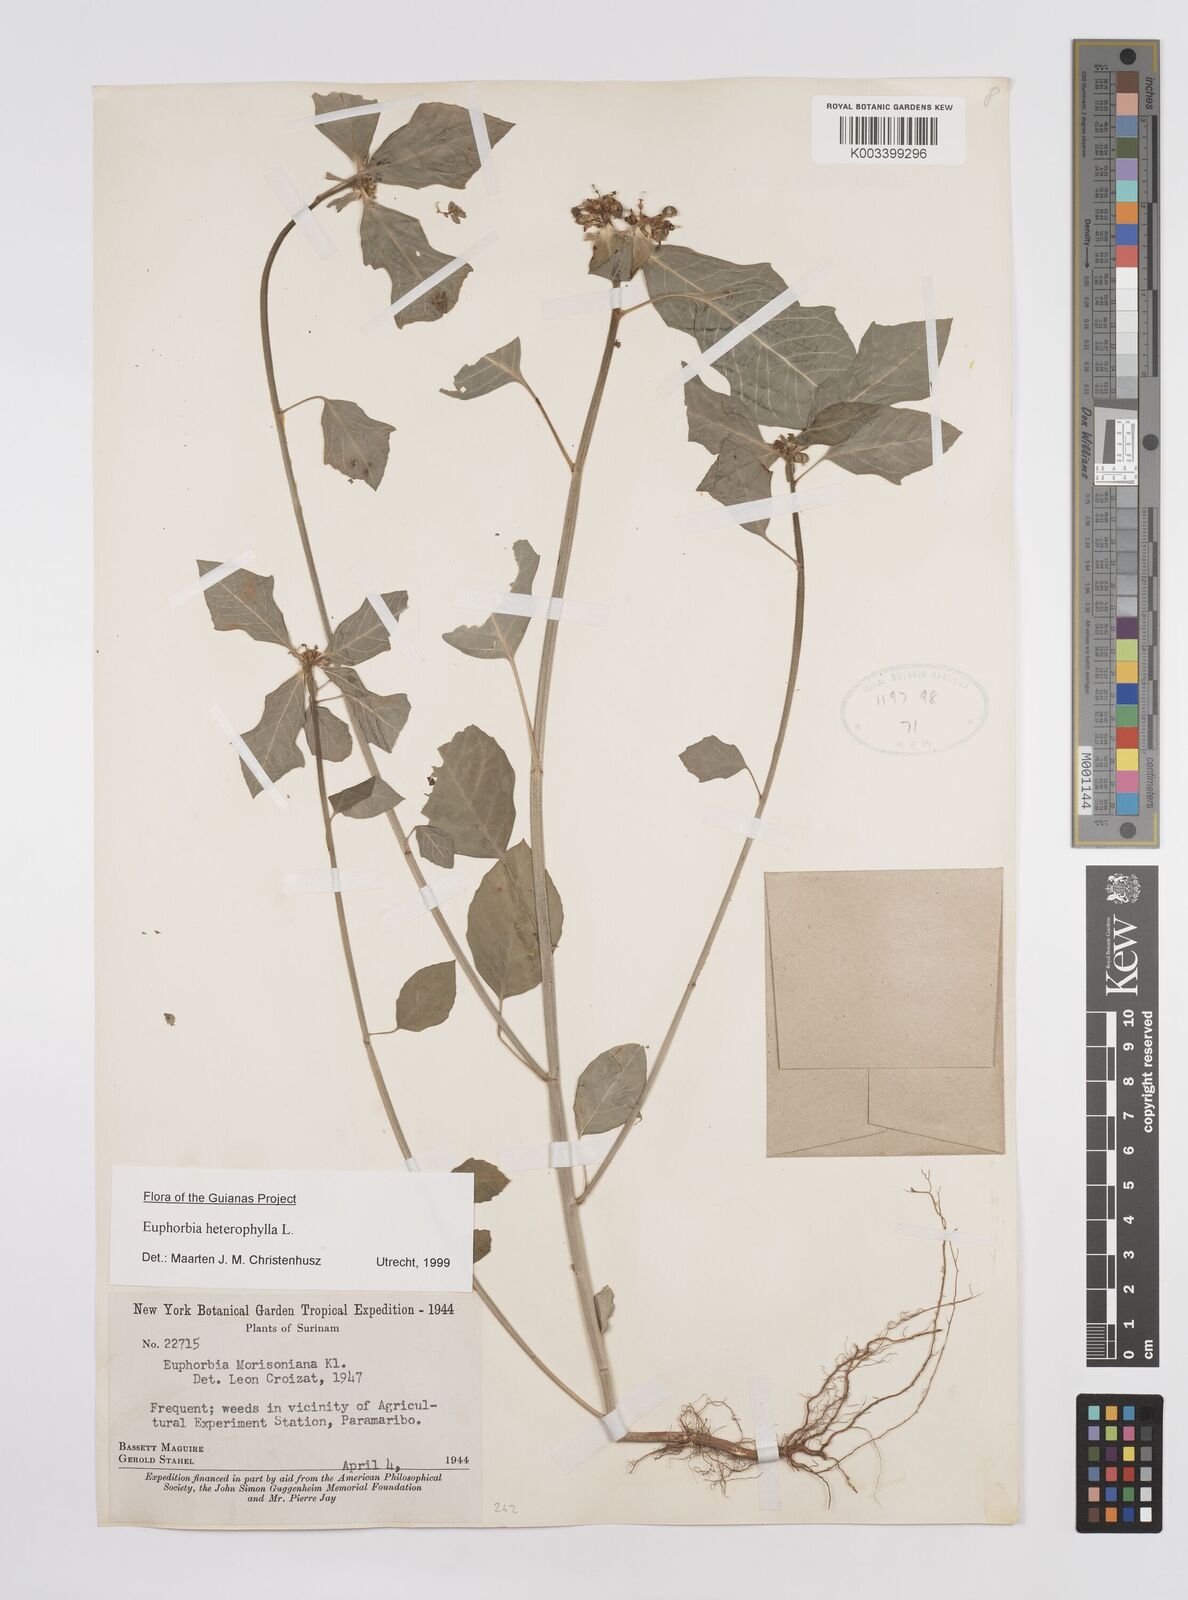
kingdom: Plantae
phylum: Tracheophyta
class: Magnoliopsida
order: Malpighiales
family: Euphorbiaceae
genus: Euphorbia
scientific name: Euphorbia heterophylla
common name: Mexican fireplant
